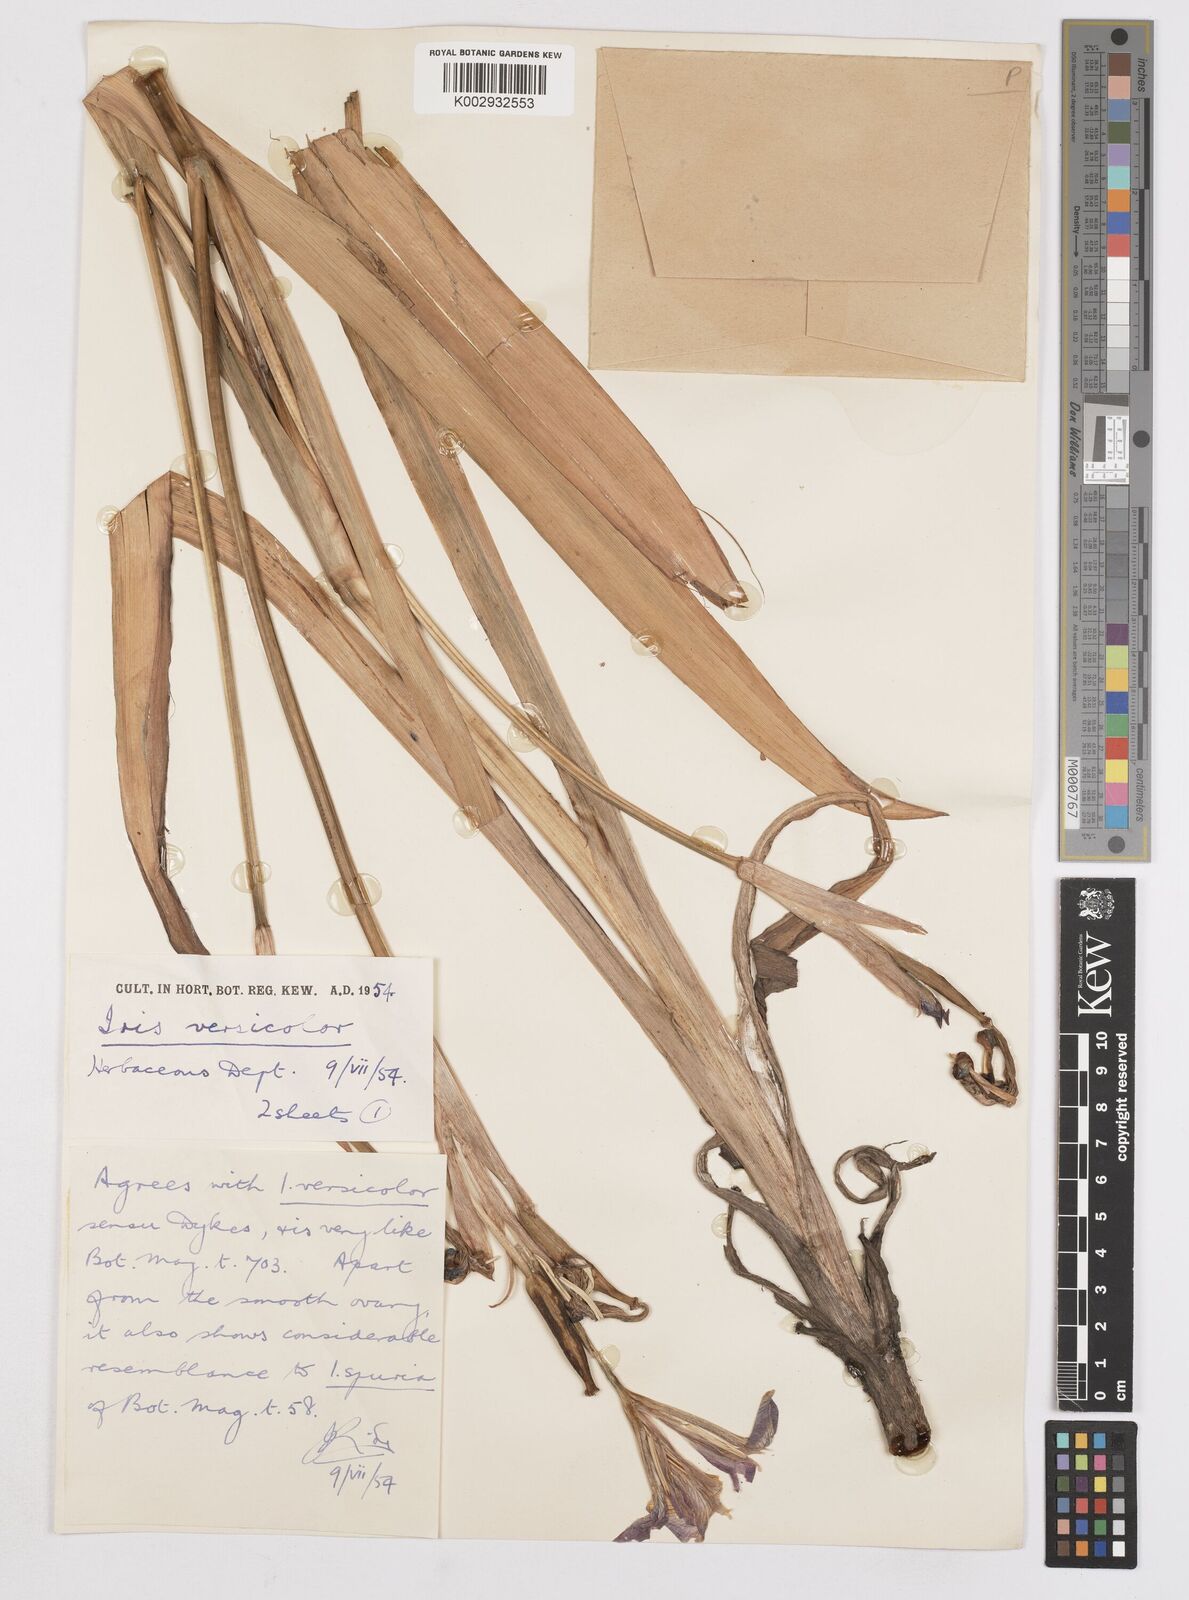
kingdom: Plantae
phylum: Tracheophyta
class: Liliopsida
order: Asparagales
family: Iridaceae
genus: Iris
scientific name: Iris versicolor
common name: Purple iris
